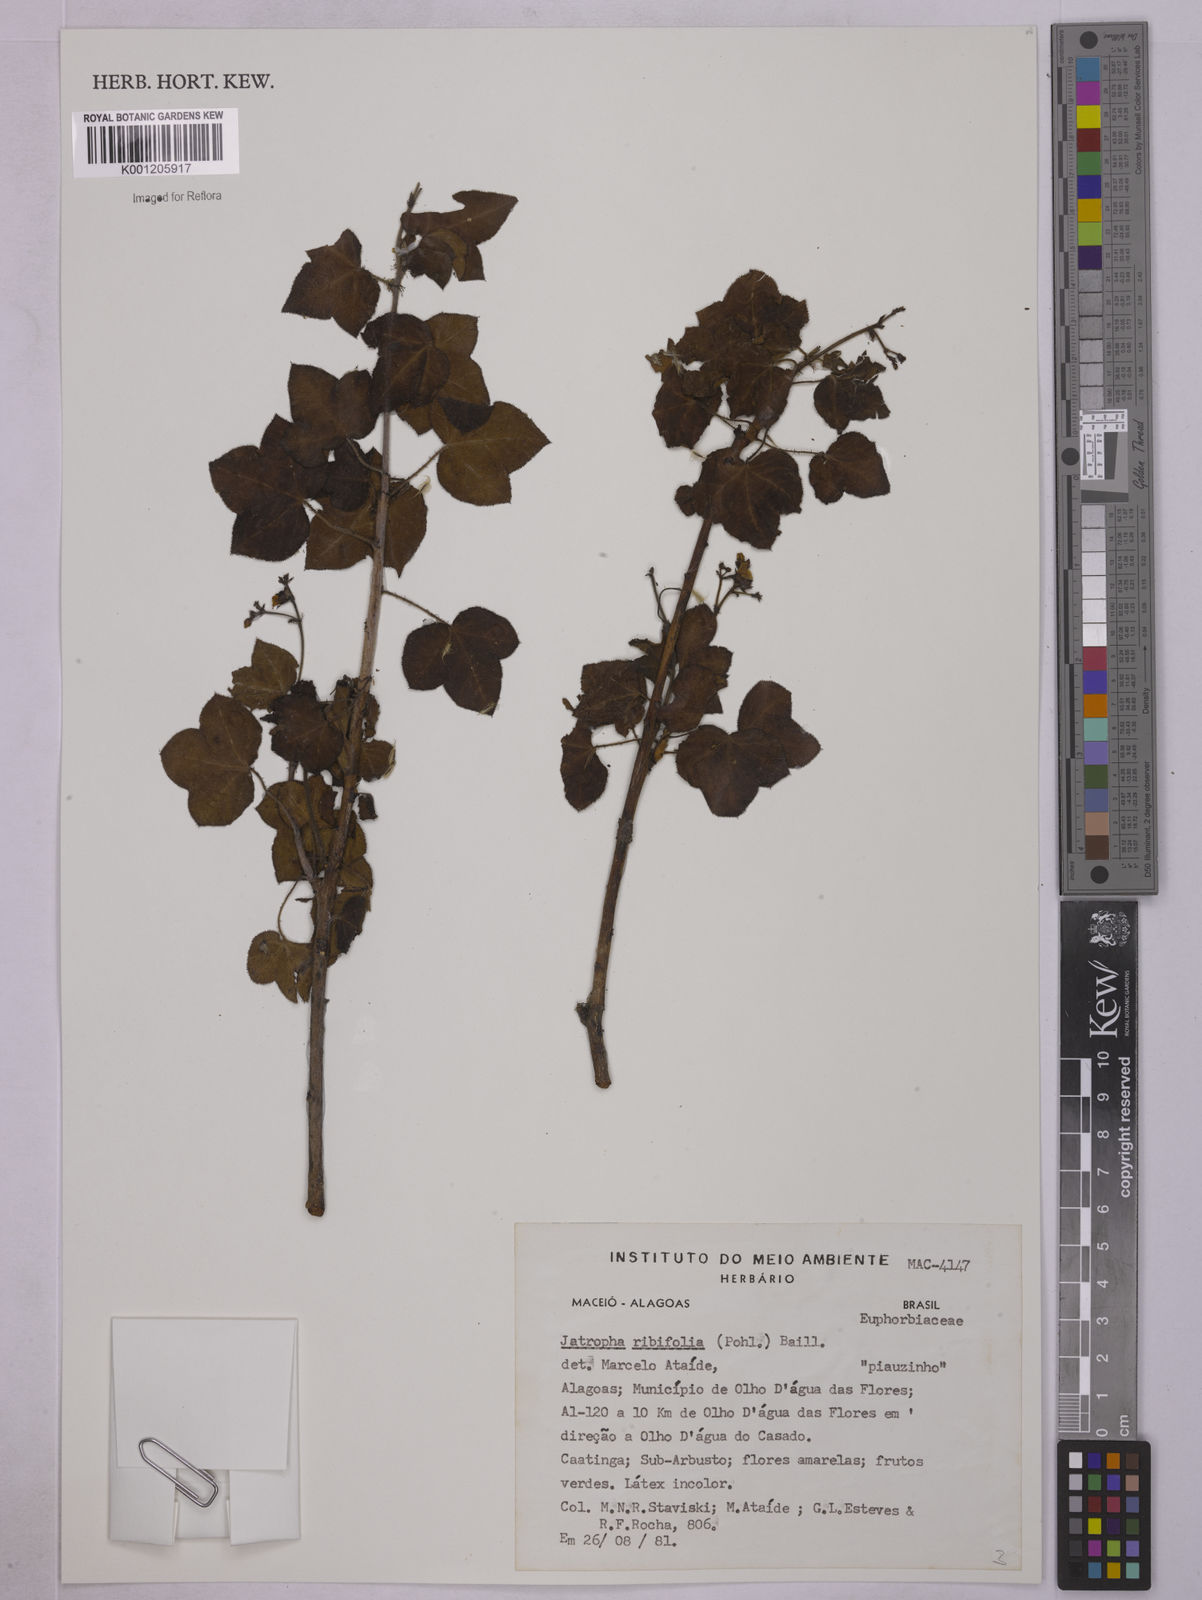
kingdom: Plantae
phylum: Tracheophyta
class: Magnoliopsida
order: Malpighiales
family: Euphorbiaceae
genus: Jatropha
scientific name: Jatropha ribifolia
